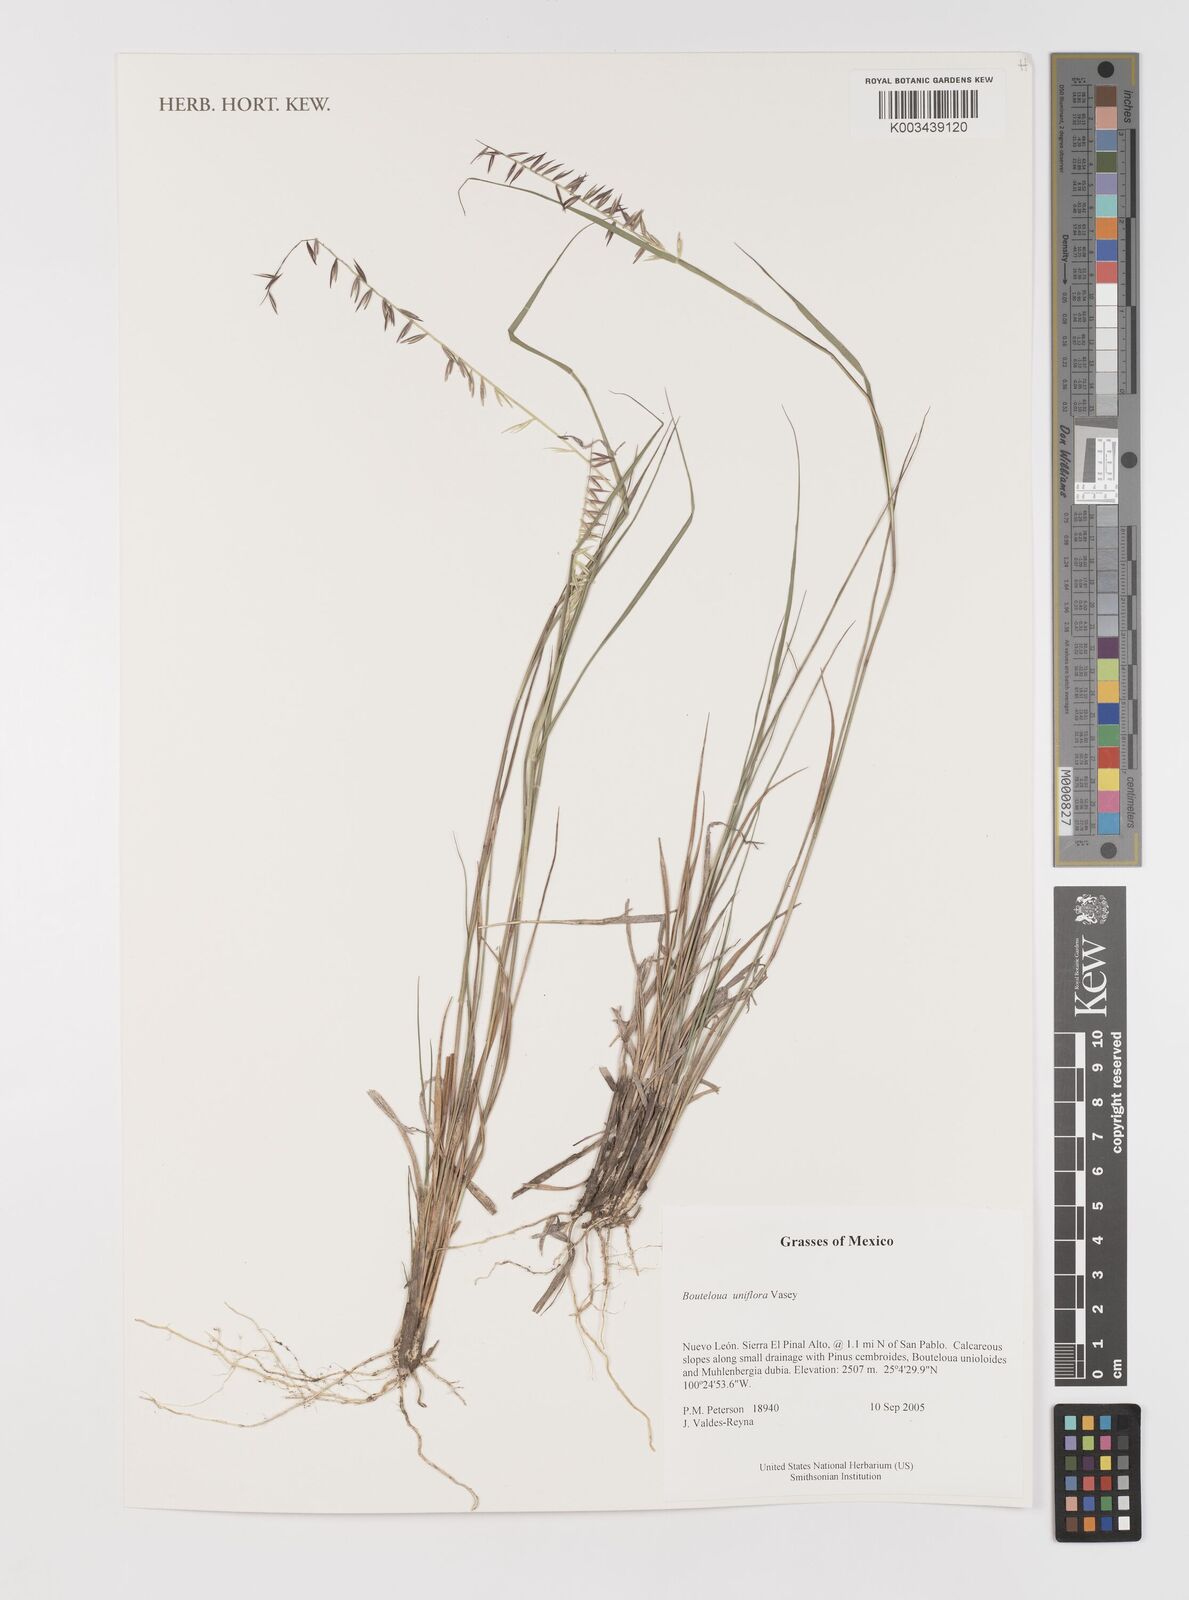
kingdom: Plantae
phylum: Tracheophyta
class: Liliopsida
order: Poales
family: Poaceae
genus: Bouteloua
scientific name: Bouteloua uniflora
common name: Neally's grama
